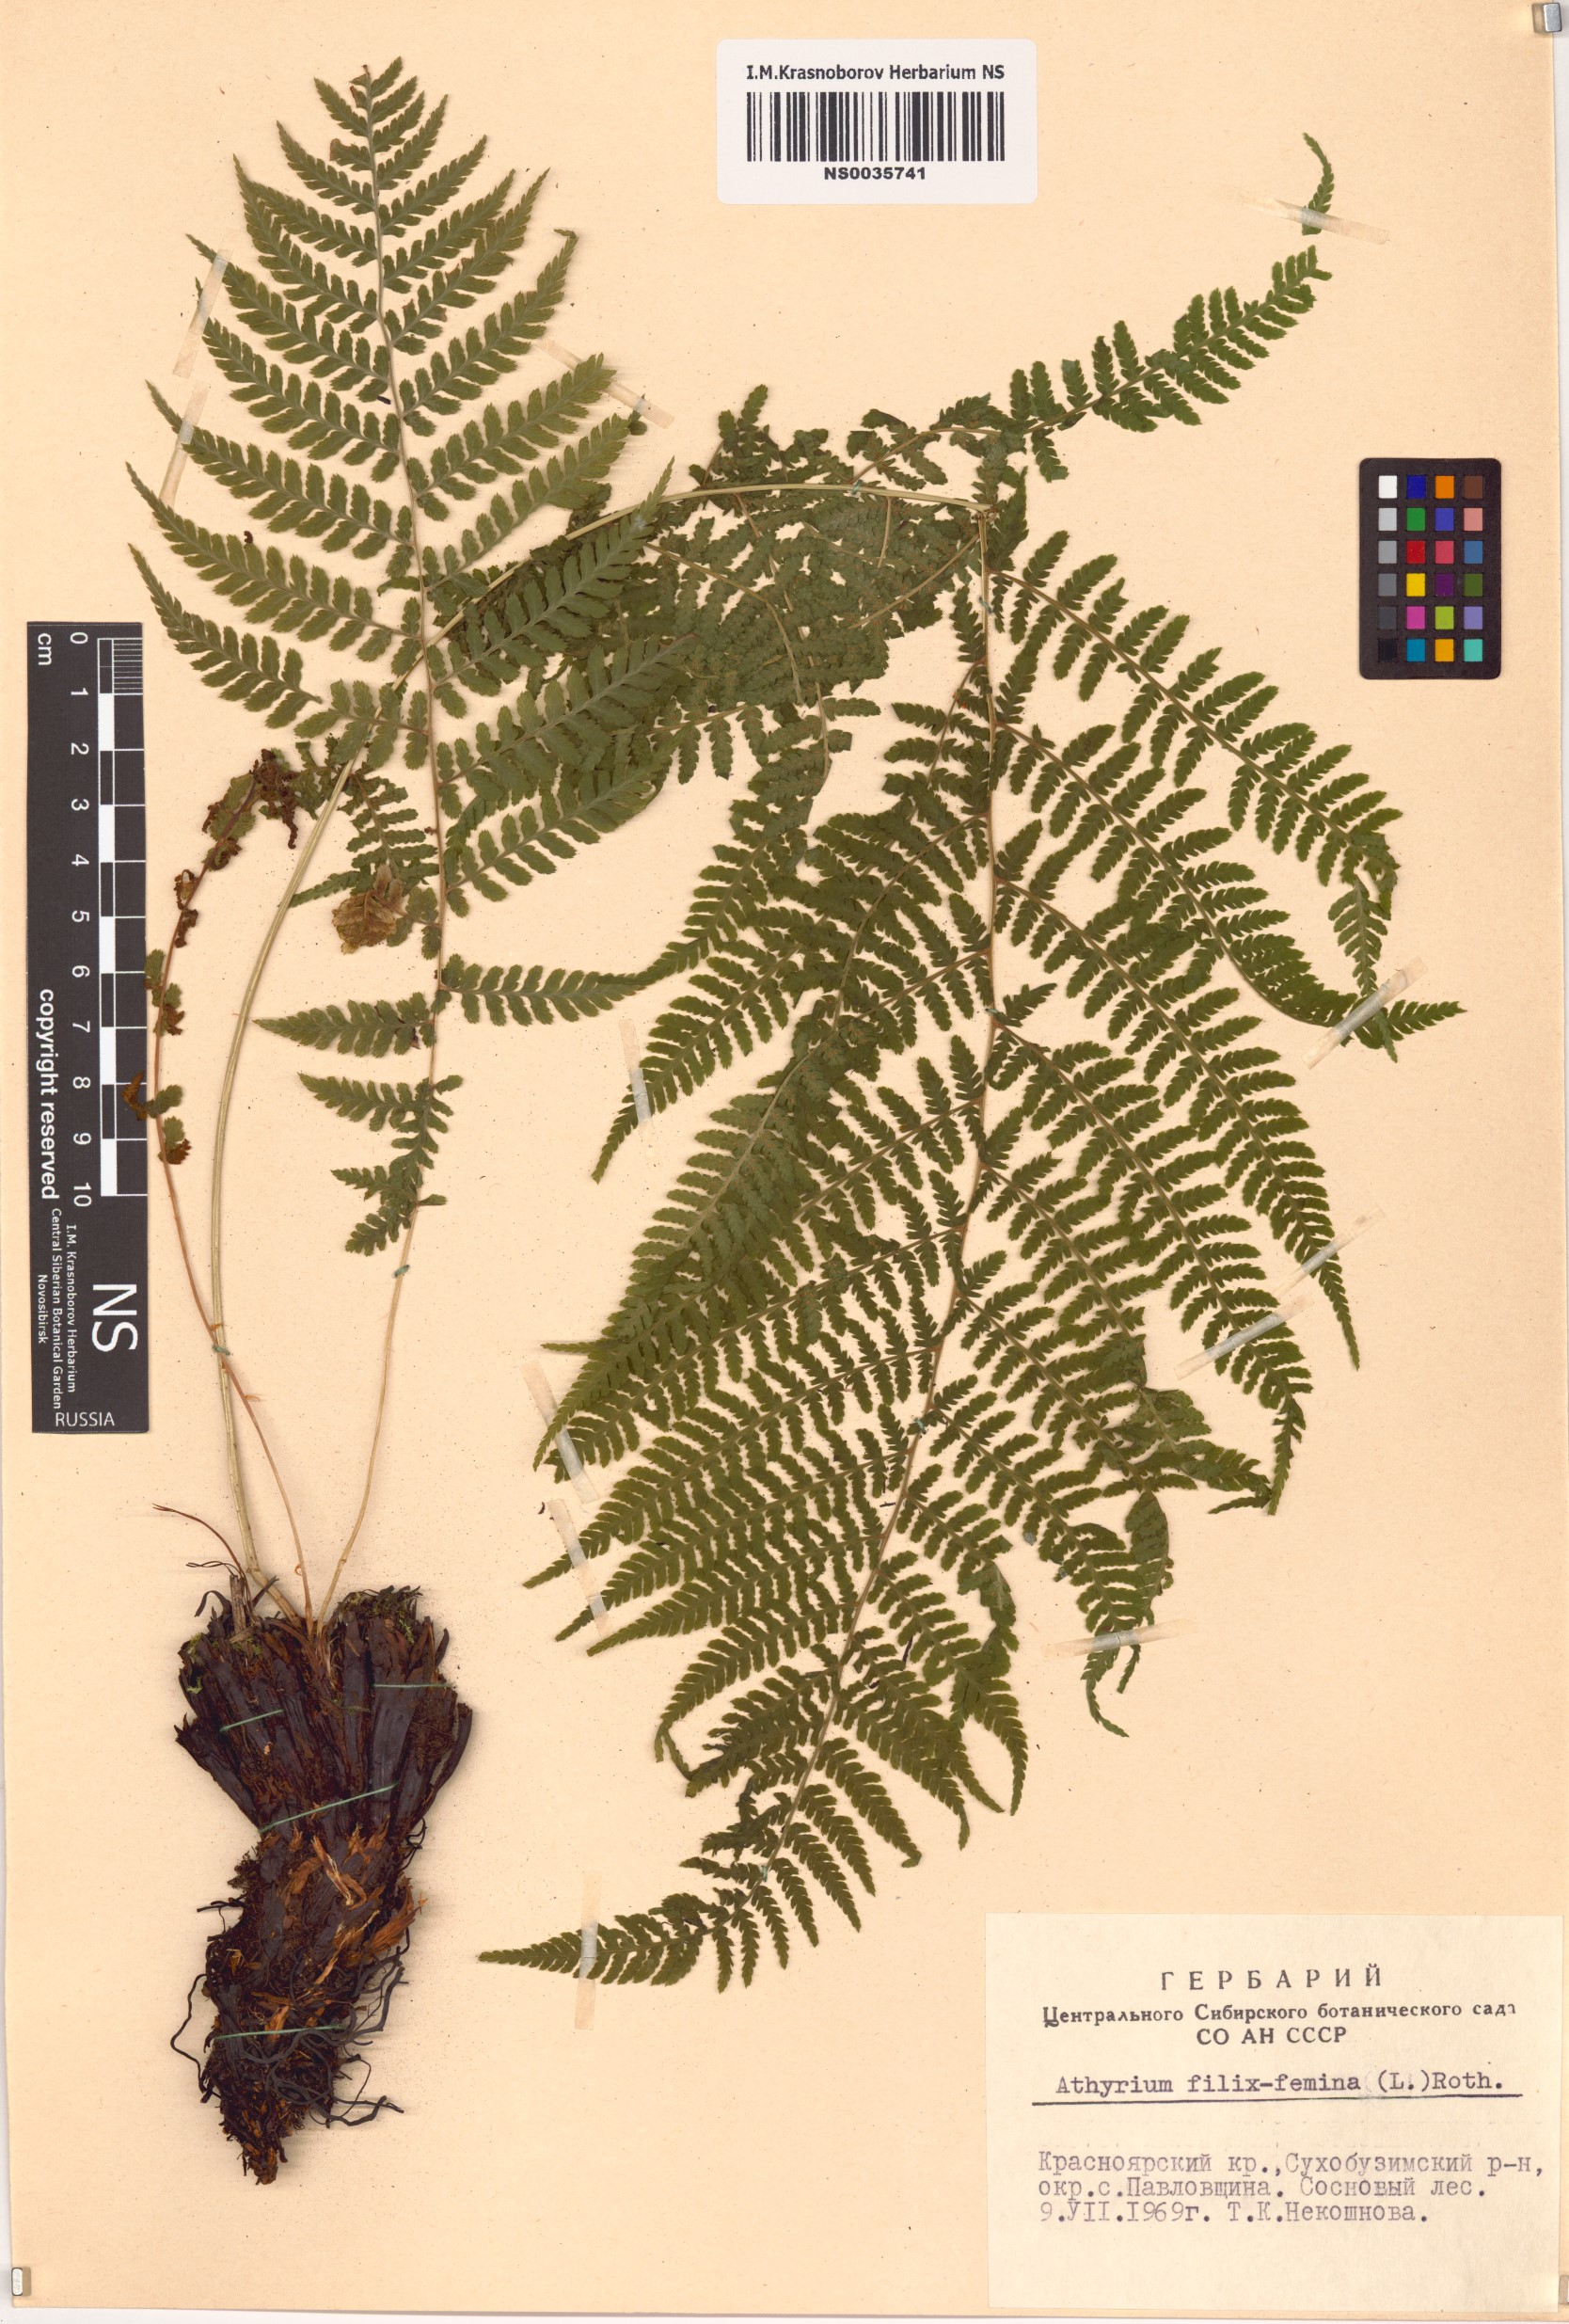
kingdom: Plantae
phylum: Tracheophyta
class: Polypodiopsida
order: Polypodiales
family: Athyriaceae
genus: Athyrium
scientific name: Athyrium filix-femina
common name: Lady fern
